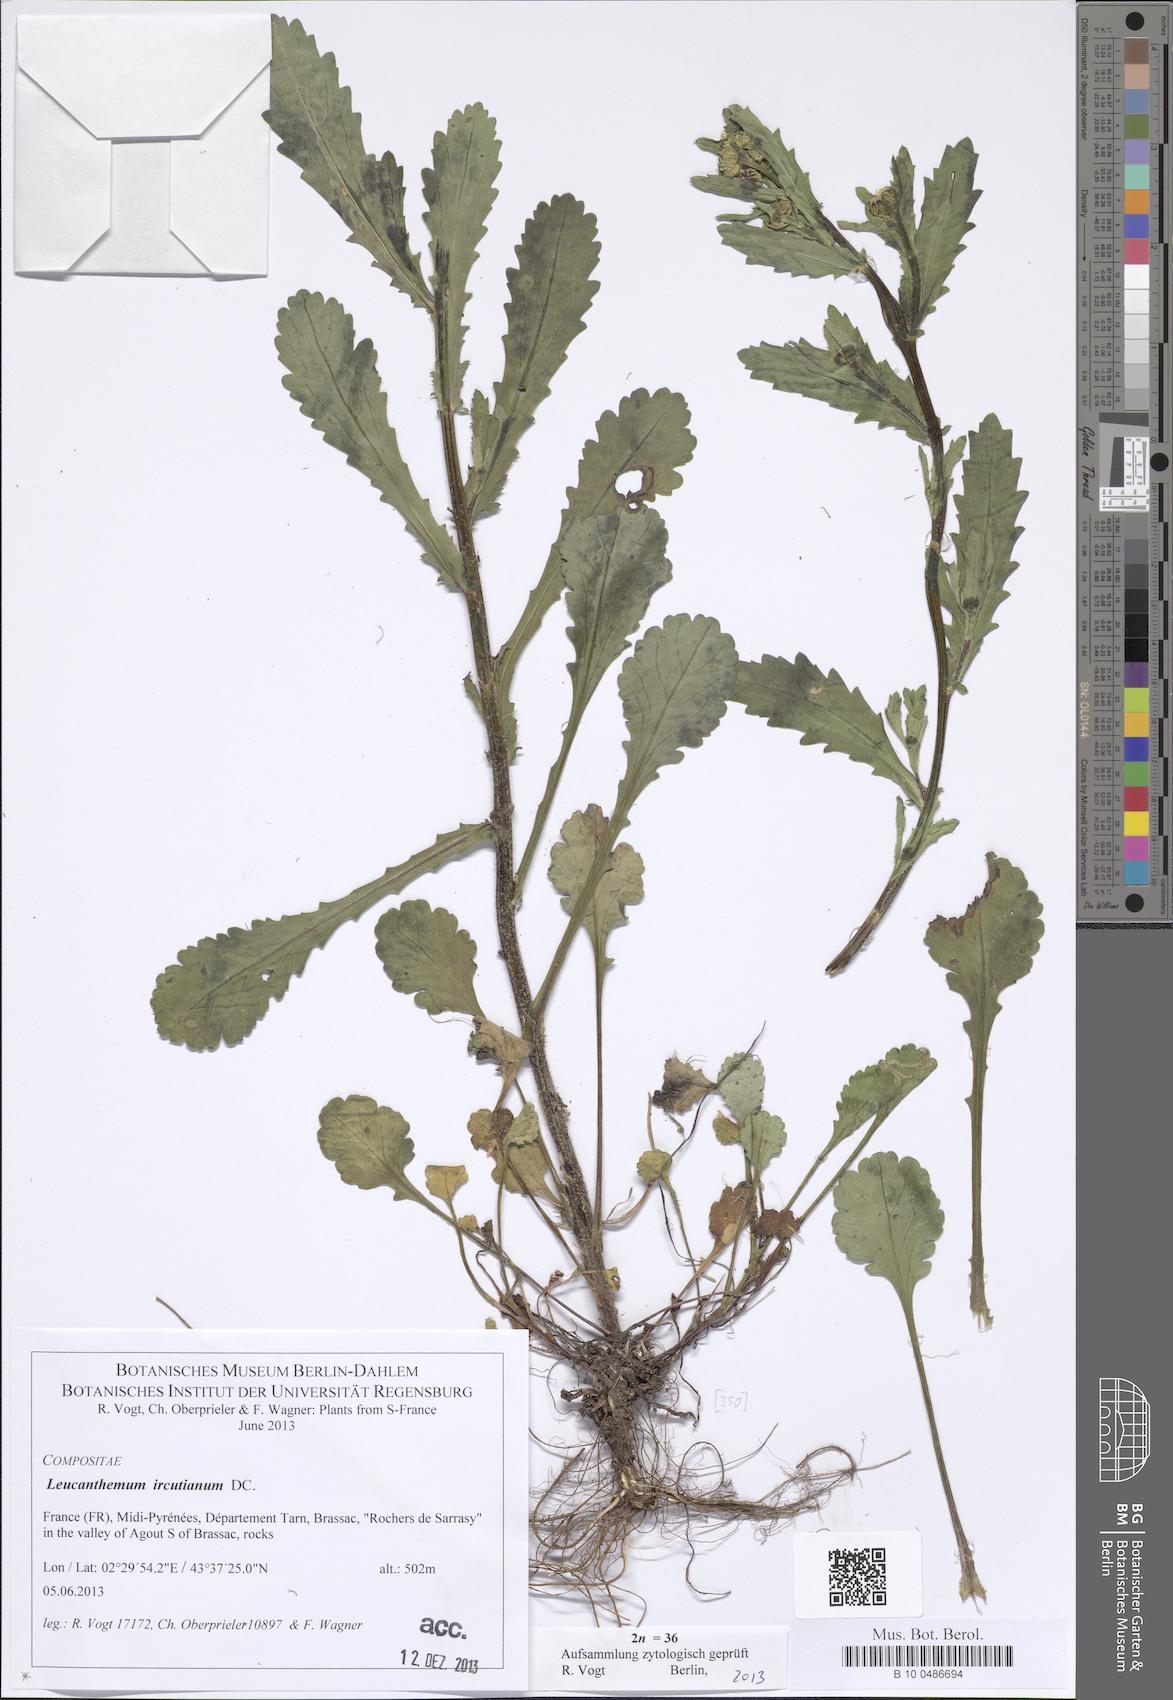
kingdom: Plantae
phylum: Tracheophyta
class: Magnoliopsida
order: Asterales
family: Asteraceae
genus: Leucanthemum
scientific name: Leucanthemum ircutianum
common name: Daisy
